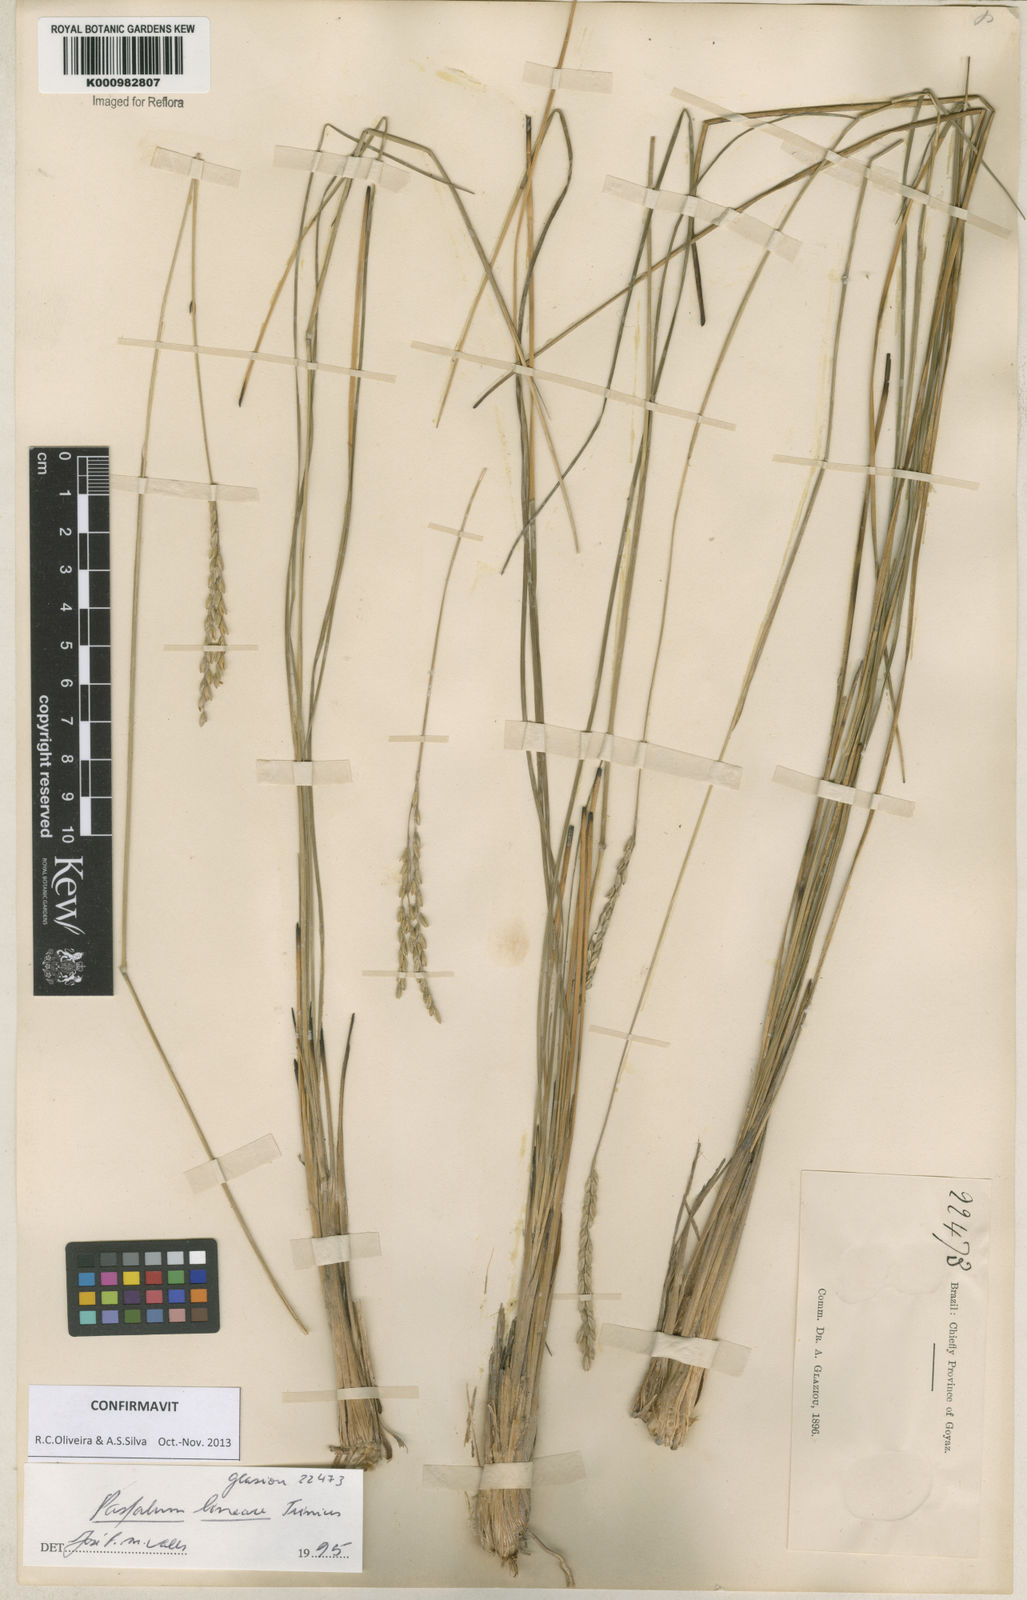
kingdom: Plantae
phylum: Tracheophyta
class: Liliopsida
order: Poales
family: Poaceae
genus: Paspalum
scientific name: Paspalum lineare
